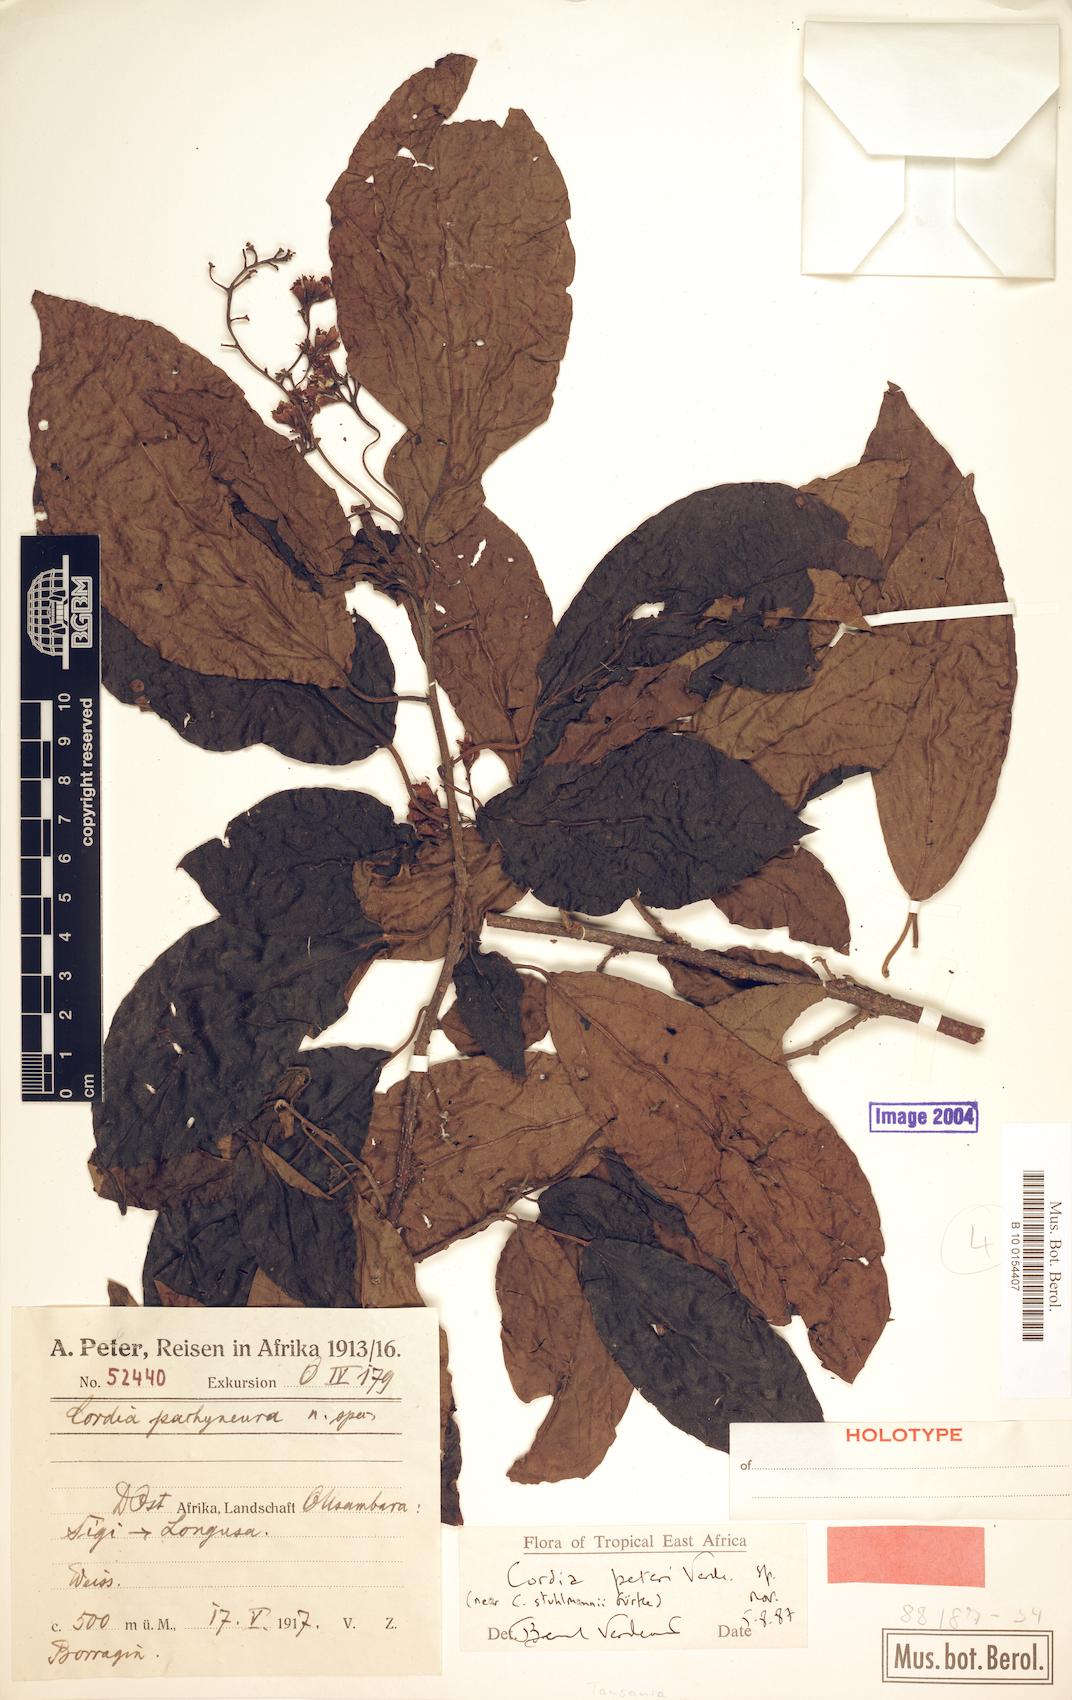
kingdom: Plantae
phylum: Tracheophyta
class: Magnoliopsida
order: Boraginales
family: Cordiaceae
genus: Cordia
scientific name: Cordia peteri
